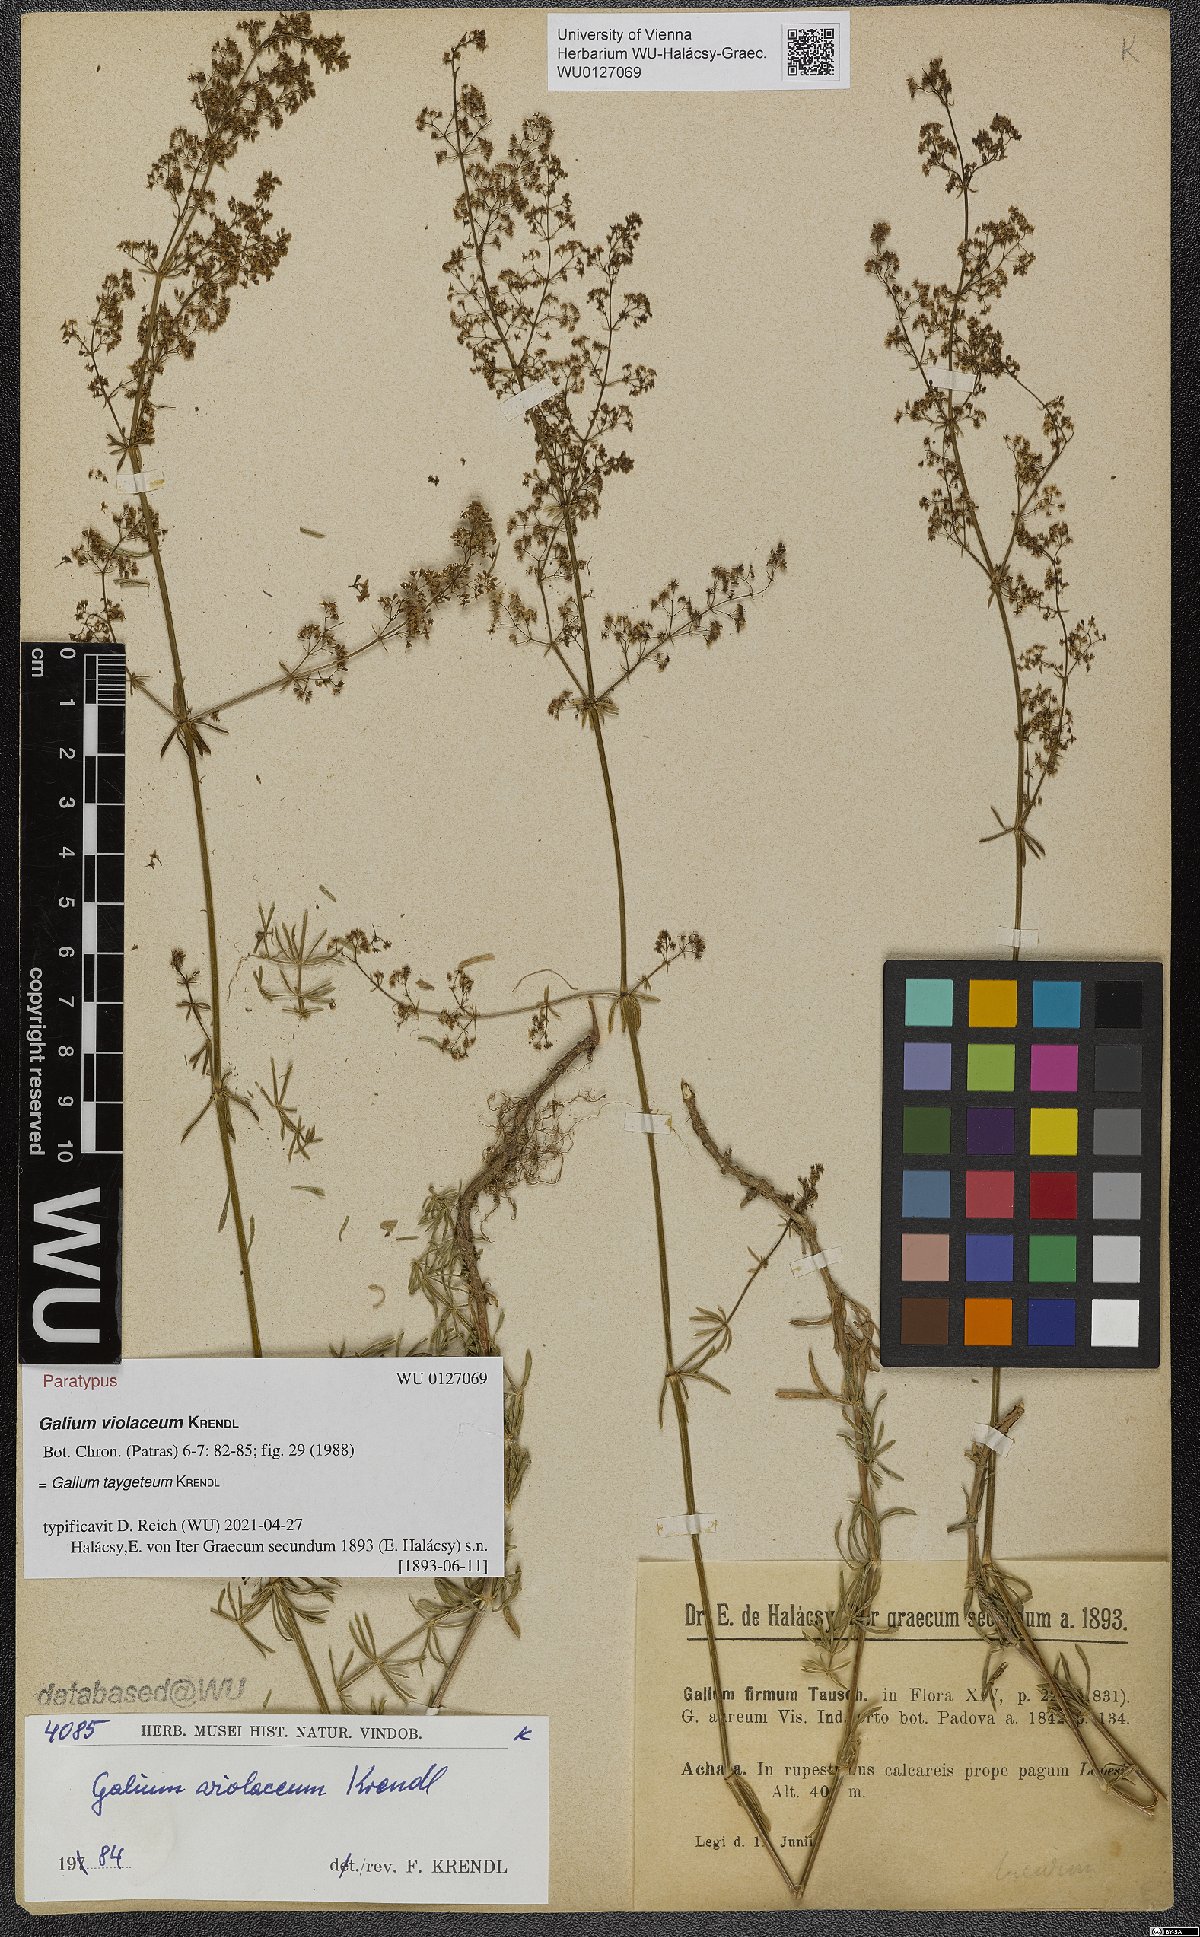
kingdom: Plantae
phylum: Tracheophyta
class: Magnoliopsida
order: Gentianales
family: Rubiaceae
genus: Galium
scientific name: Galium taygeteum
